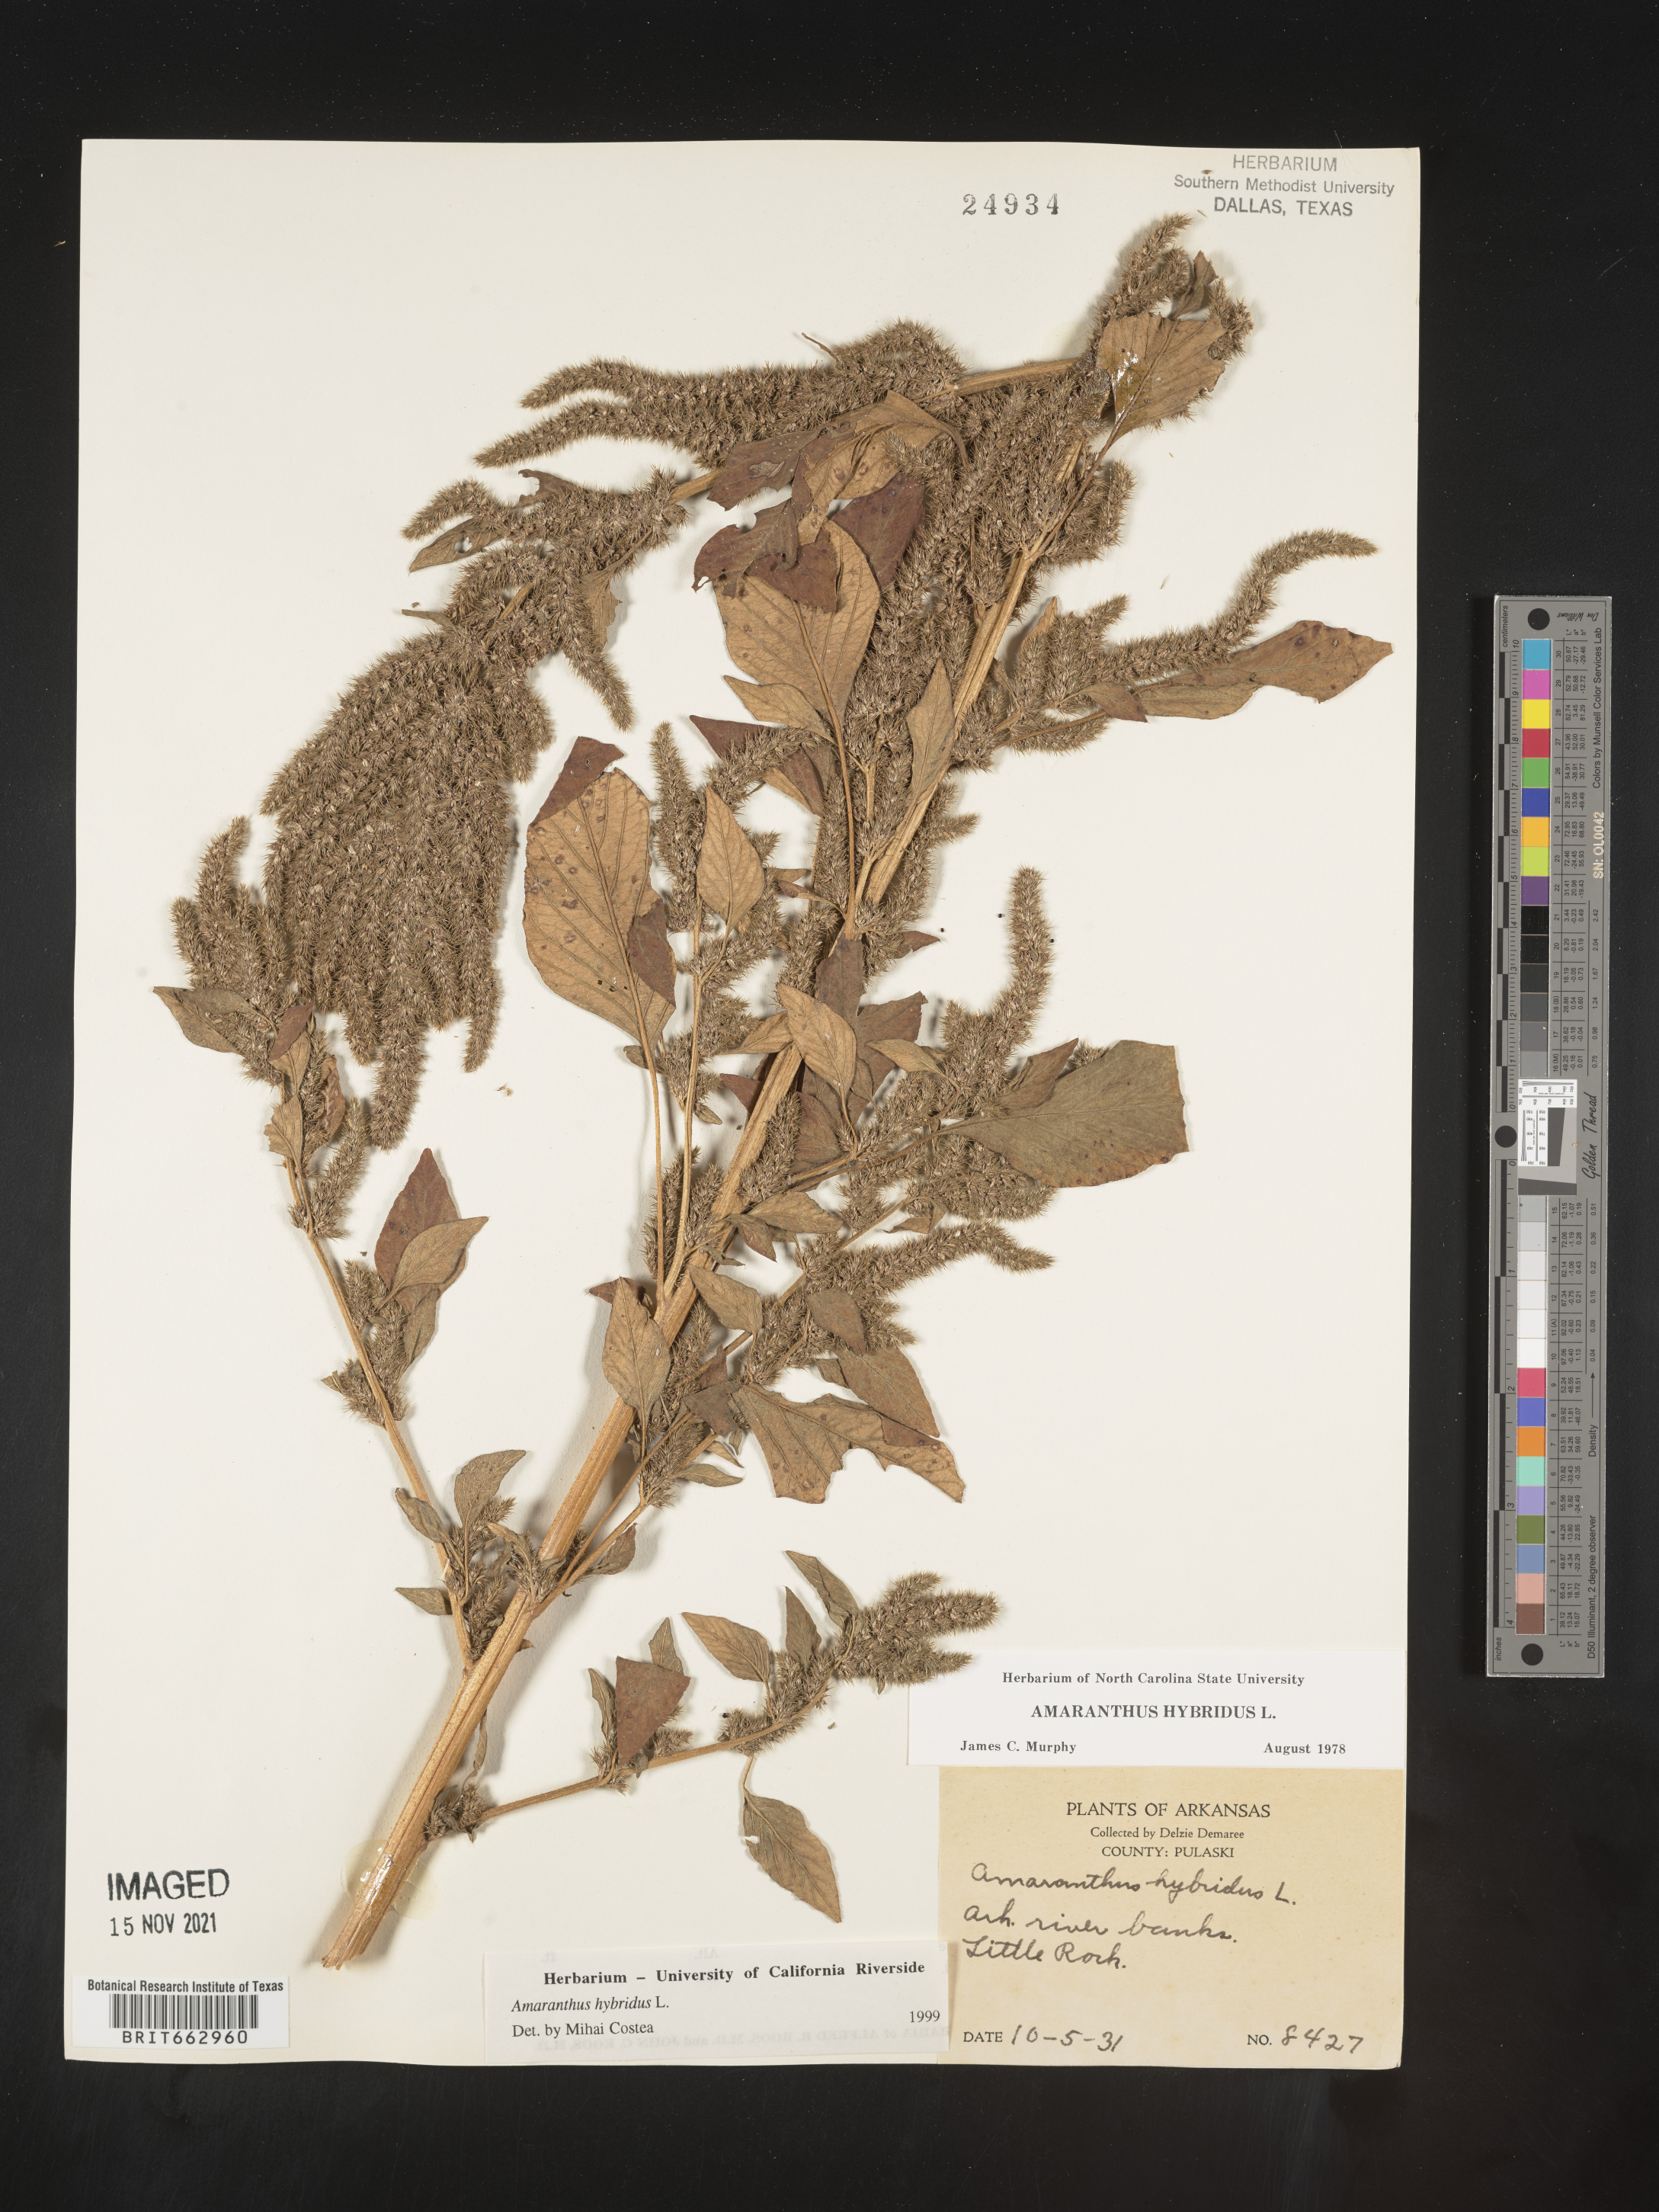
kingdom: Plantae
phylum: Tracheophyta
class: Magnoliopsida
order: Caryophyllales
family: Amaranthaceae
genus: Amaranthus
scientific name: Amaranthus hybridus
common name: Green amaranth
